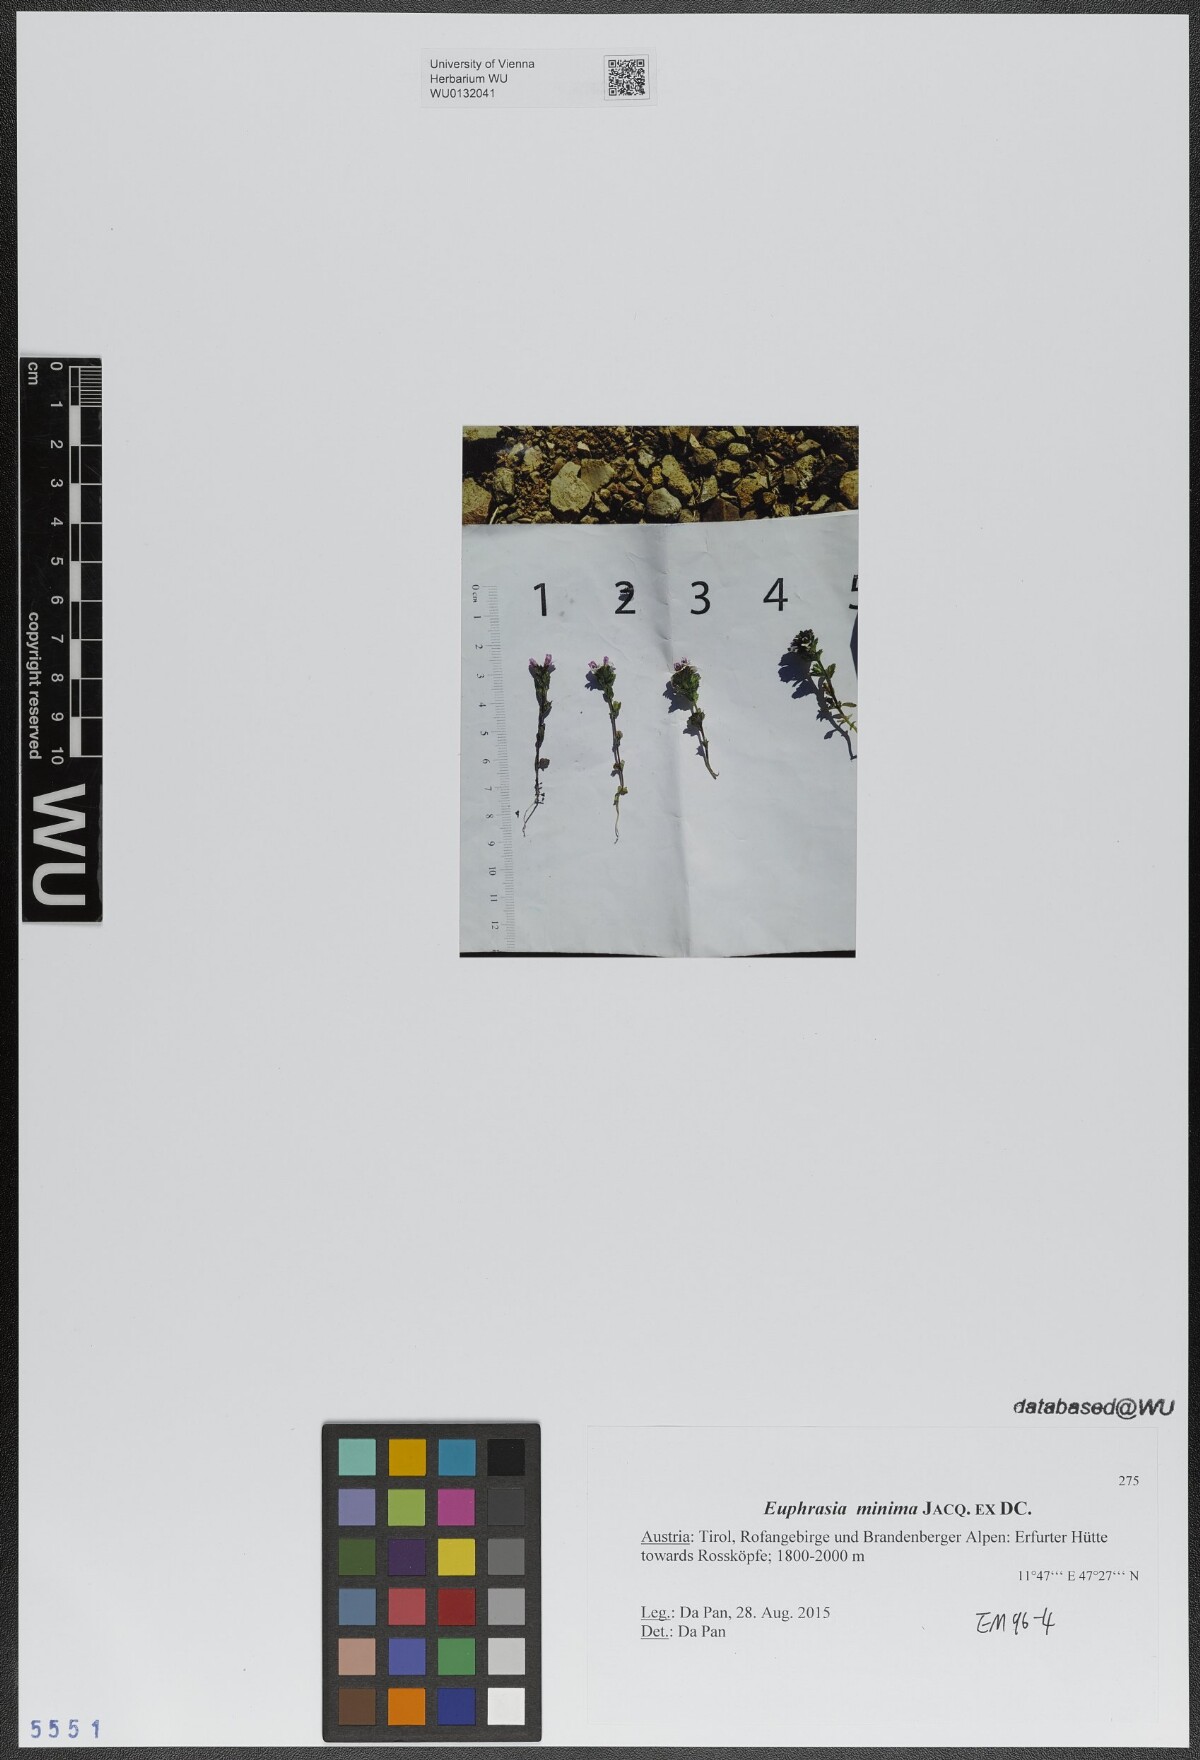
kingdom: Plantae
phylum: Tracheophyta
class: Magnoliopsida
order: Lamiales
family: Orobanchaceae
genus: Euphrasia
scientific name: Euphrasia minima
